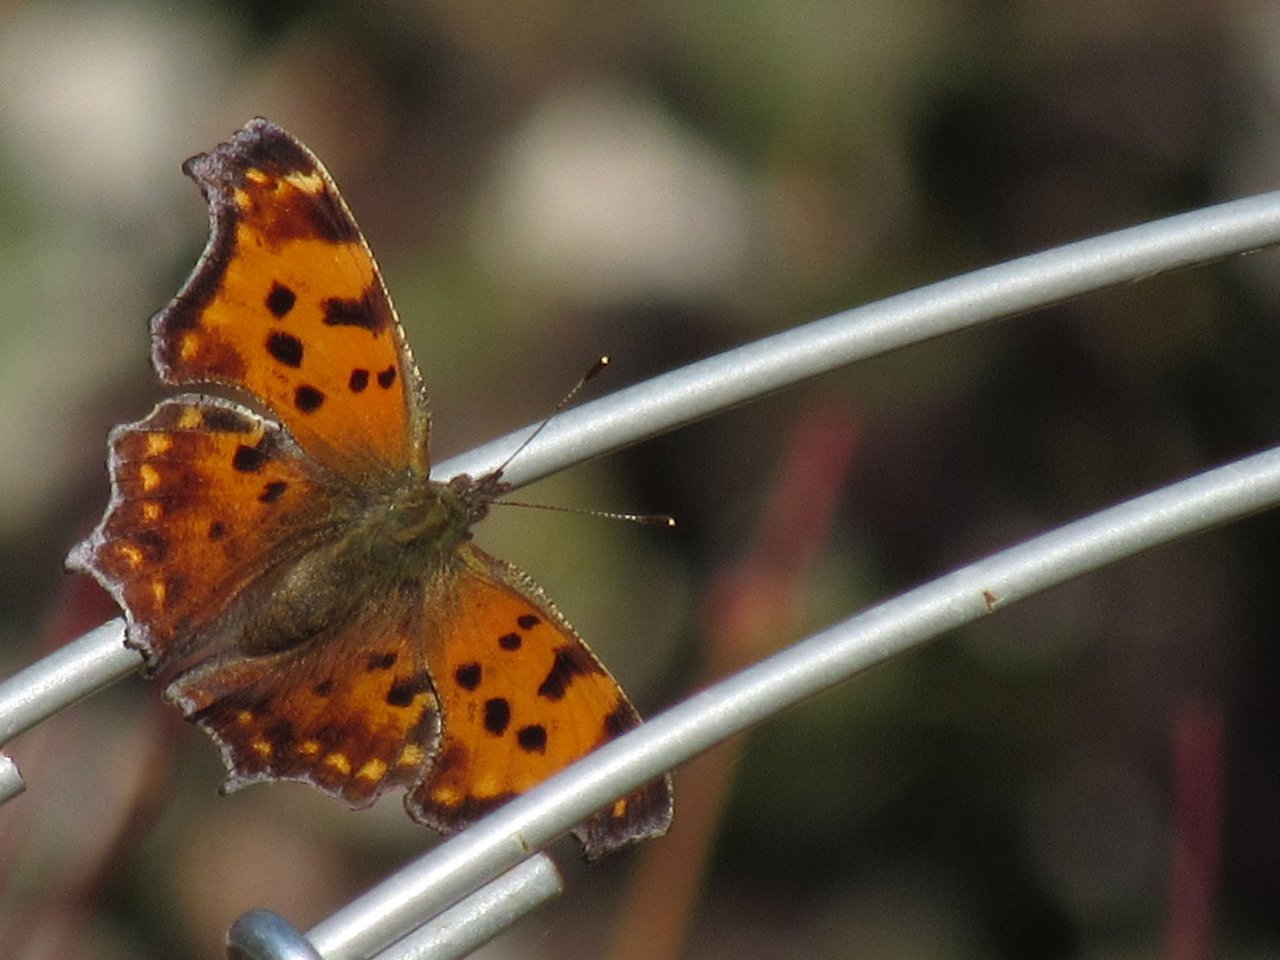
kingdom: Animalia
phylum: Arthropoda
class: Insecta
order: Lepidoptera
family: Nymphalidae
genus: Polygonia
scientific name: Polygonia comma
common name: Eastern Comma
